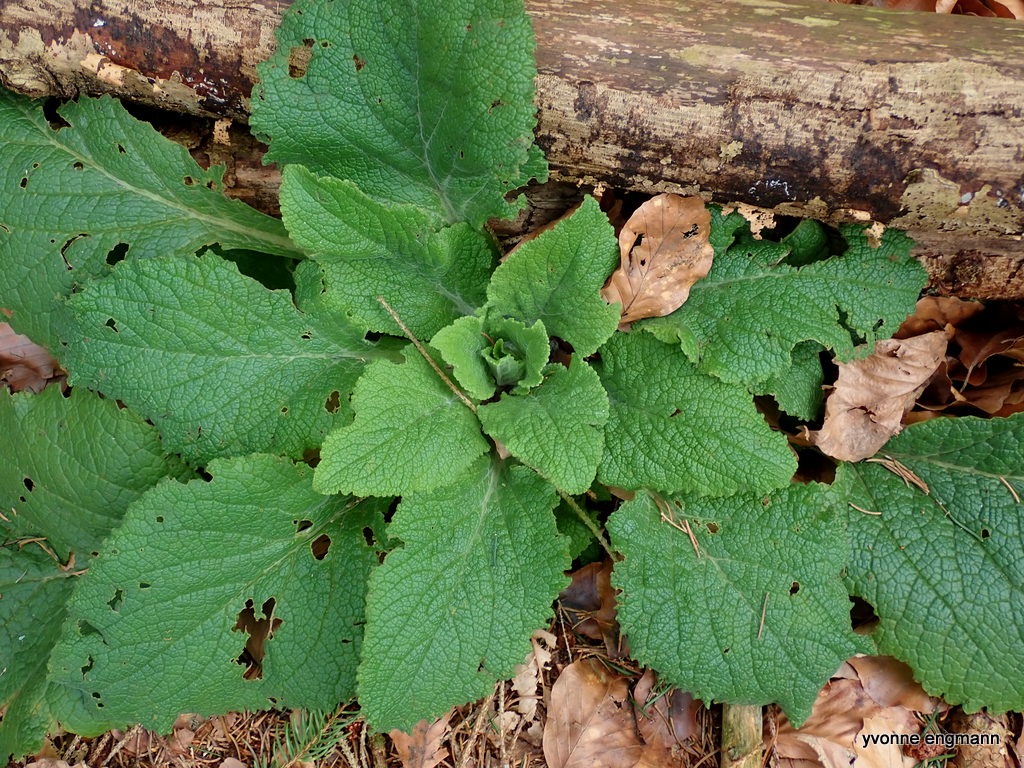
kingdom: Plantae
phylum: Tracheophyta
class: Magnoliopsida
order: Lamiales
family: Plantaginaceae
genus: Digitalis
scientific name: Digitalis purpurea
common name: Almindelig fingerbøl
